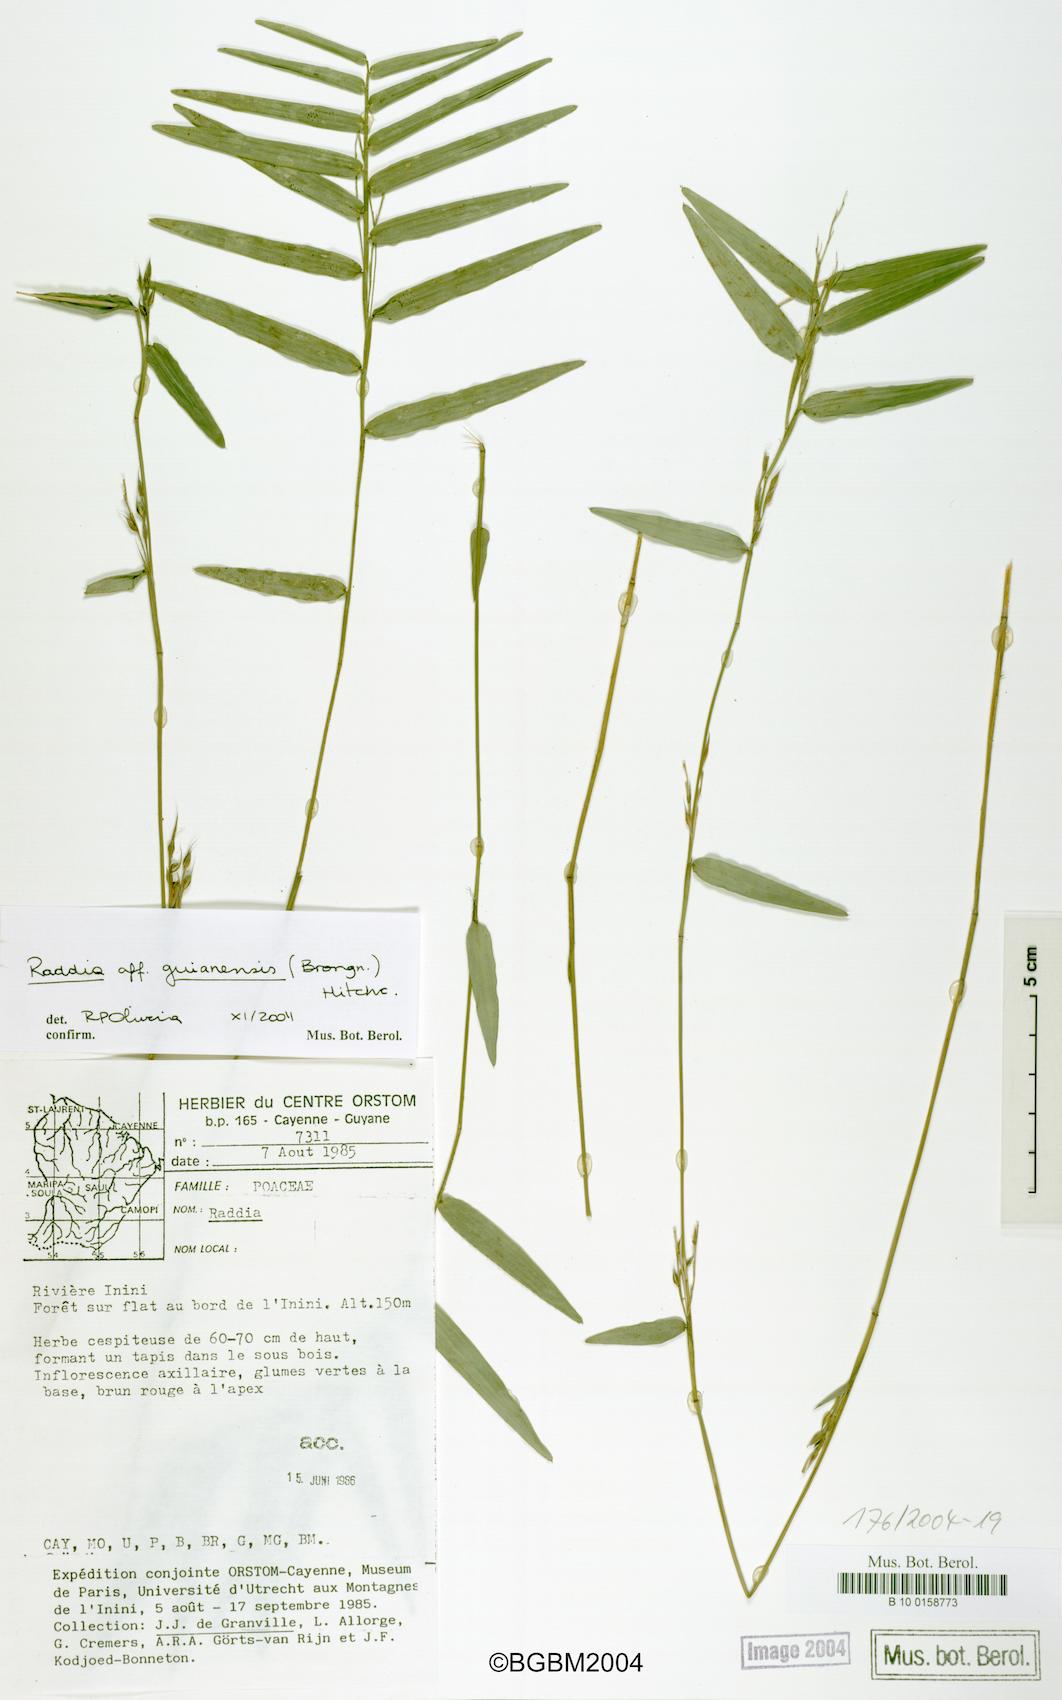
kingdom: Plantae
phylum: Tracheophyta
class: Liliopsida
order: Poales
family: Poaceae
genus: Raddia
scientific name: Raddia guianensis
